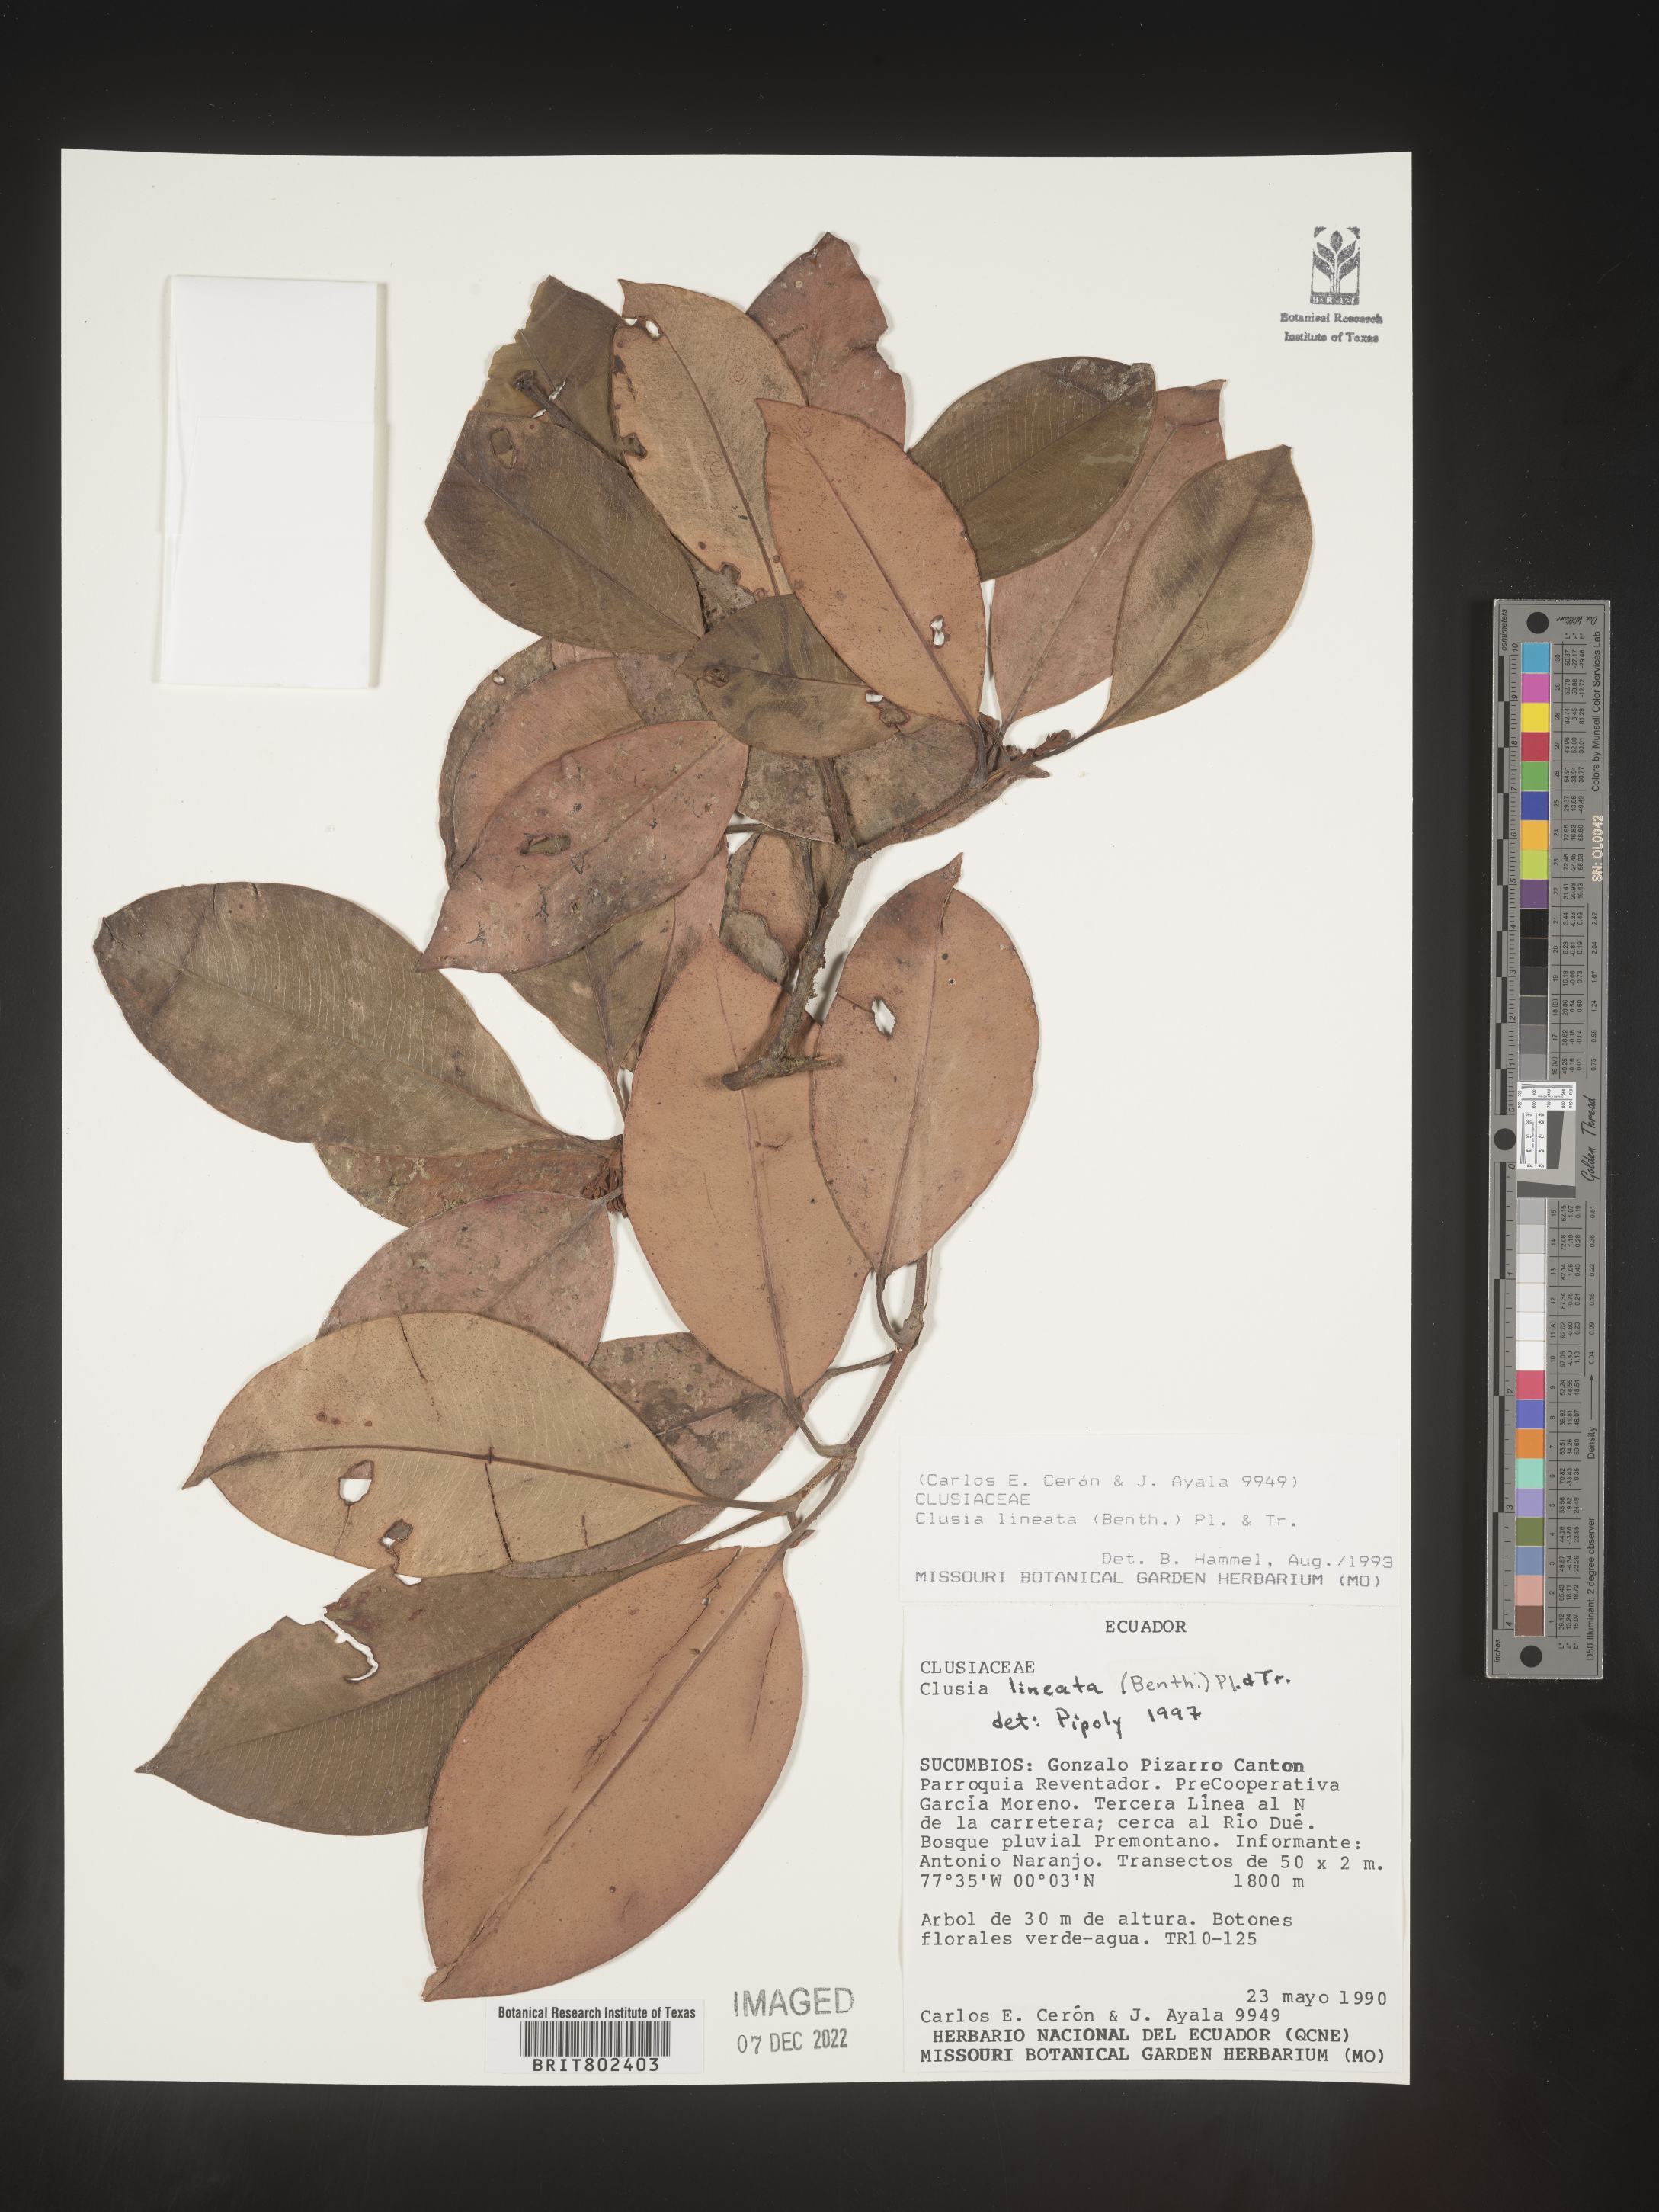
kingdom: Plantae
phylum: Tracheophyta
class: Magnoliopsida
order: Malpighiales
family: Clusiaceae
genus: Clusia
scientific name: Clusia lineata
